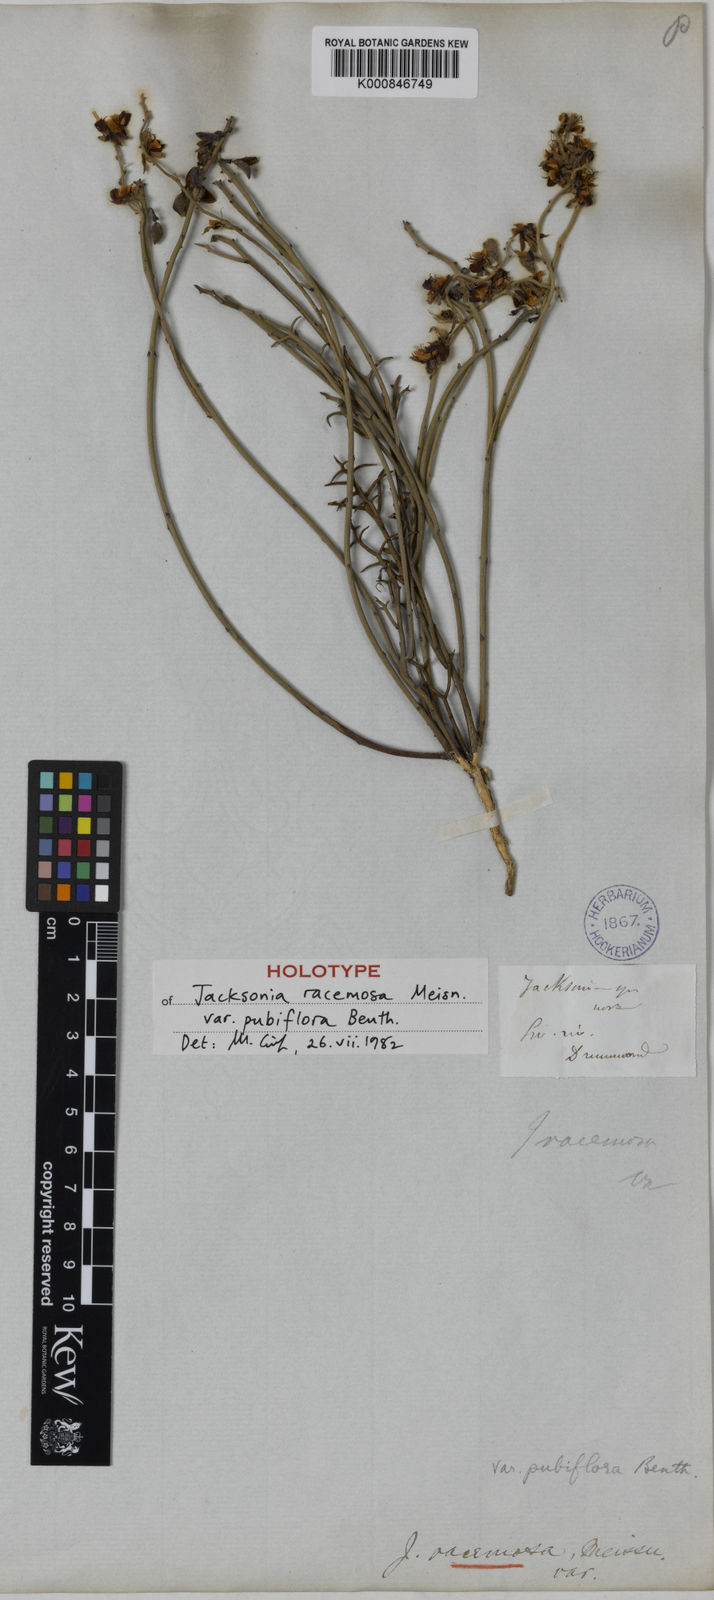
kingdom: Plantae
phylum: Tracheophyta
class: Magnoliopsida
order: Fabales
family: Fabaceae
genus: Jacksonia
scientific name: Jacksonia racemosa
